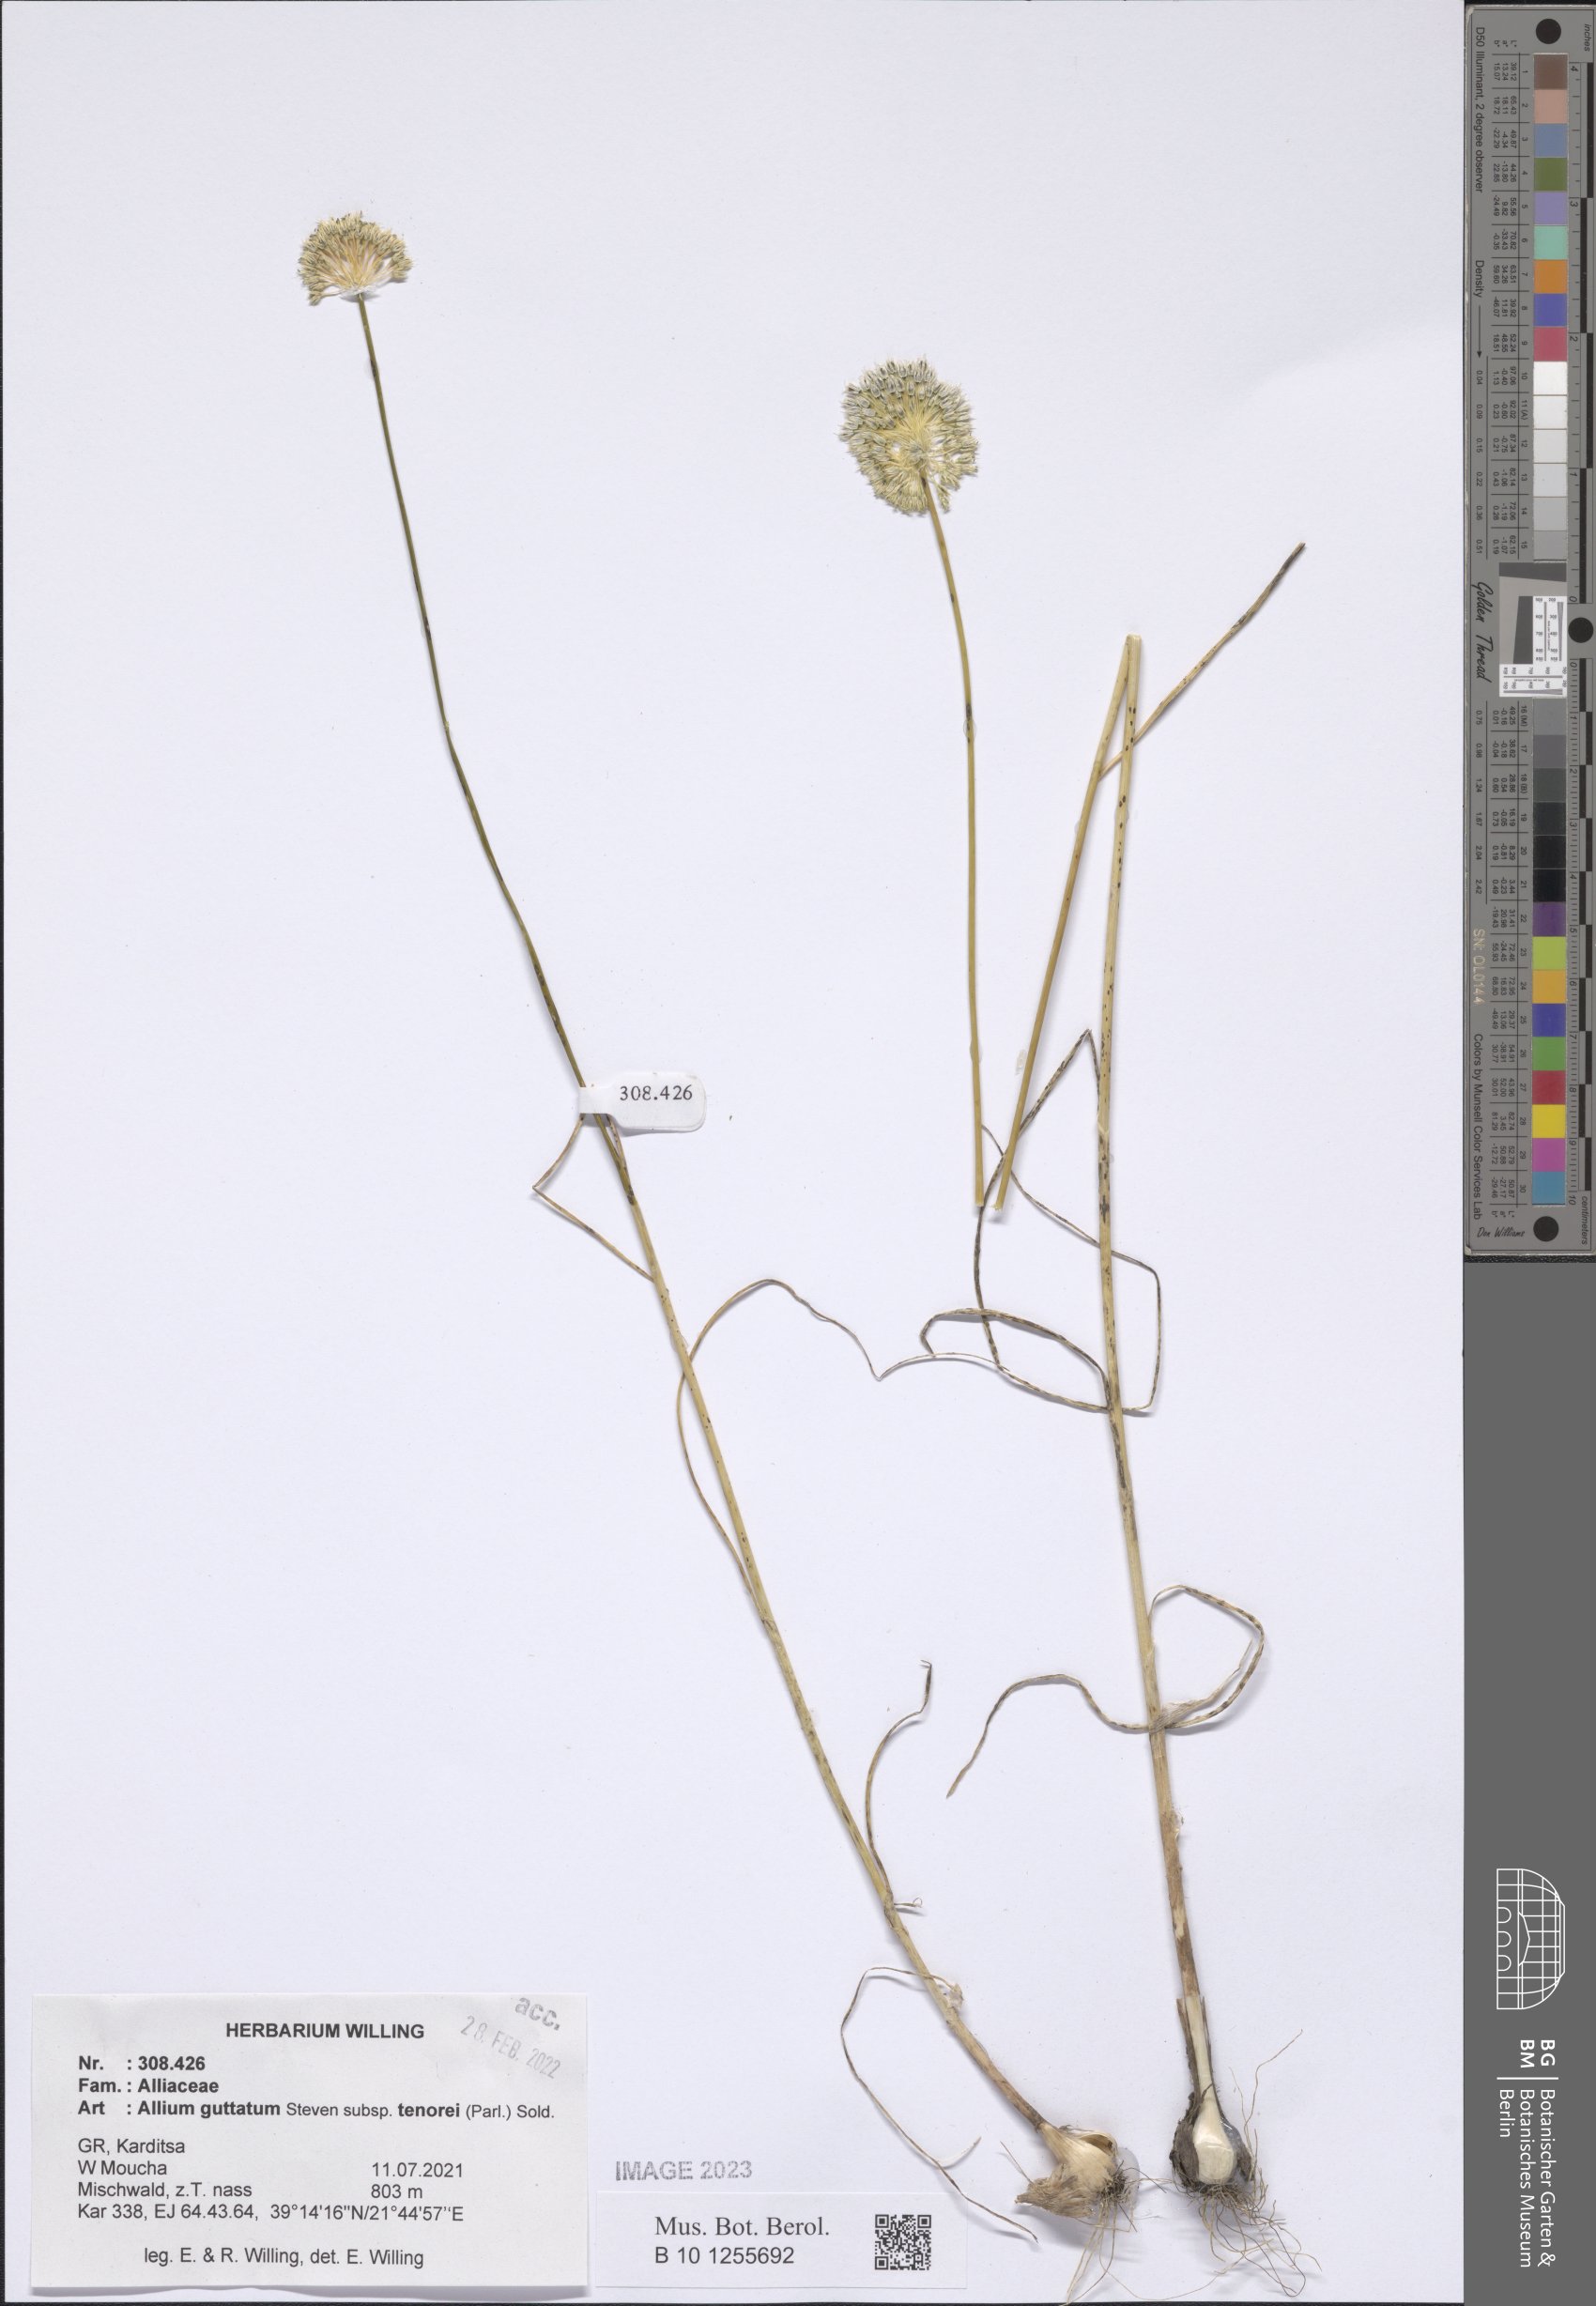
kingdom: Plantae
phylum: Tracheophyta
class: Liliopsida
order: Asparagales
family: Amaryllidaceae
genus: Allium
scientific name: Allium sardoum
